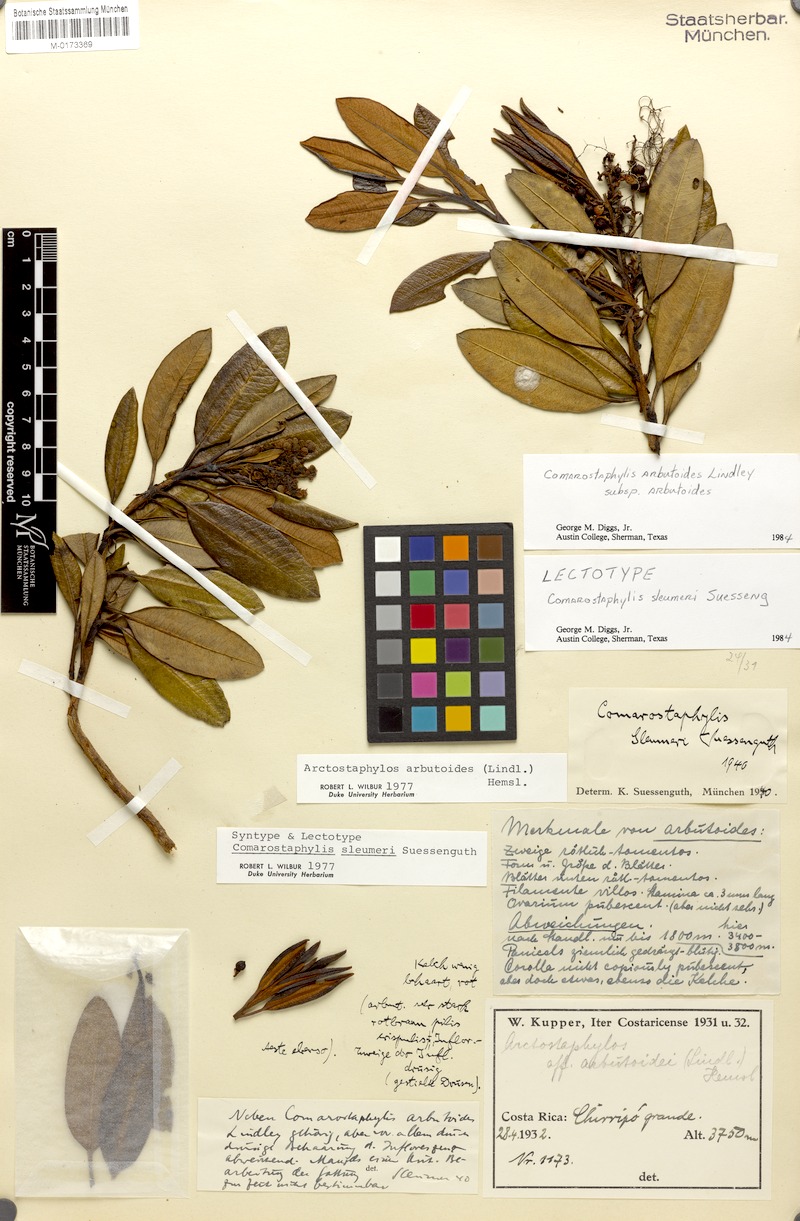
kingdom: Plantae
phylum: Tracheophyta
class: Magnoliopsida
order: Ericales
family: Ericaceae
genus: Comarostaphylis
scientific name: Comarostaphylis arbutoides
